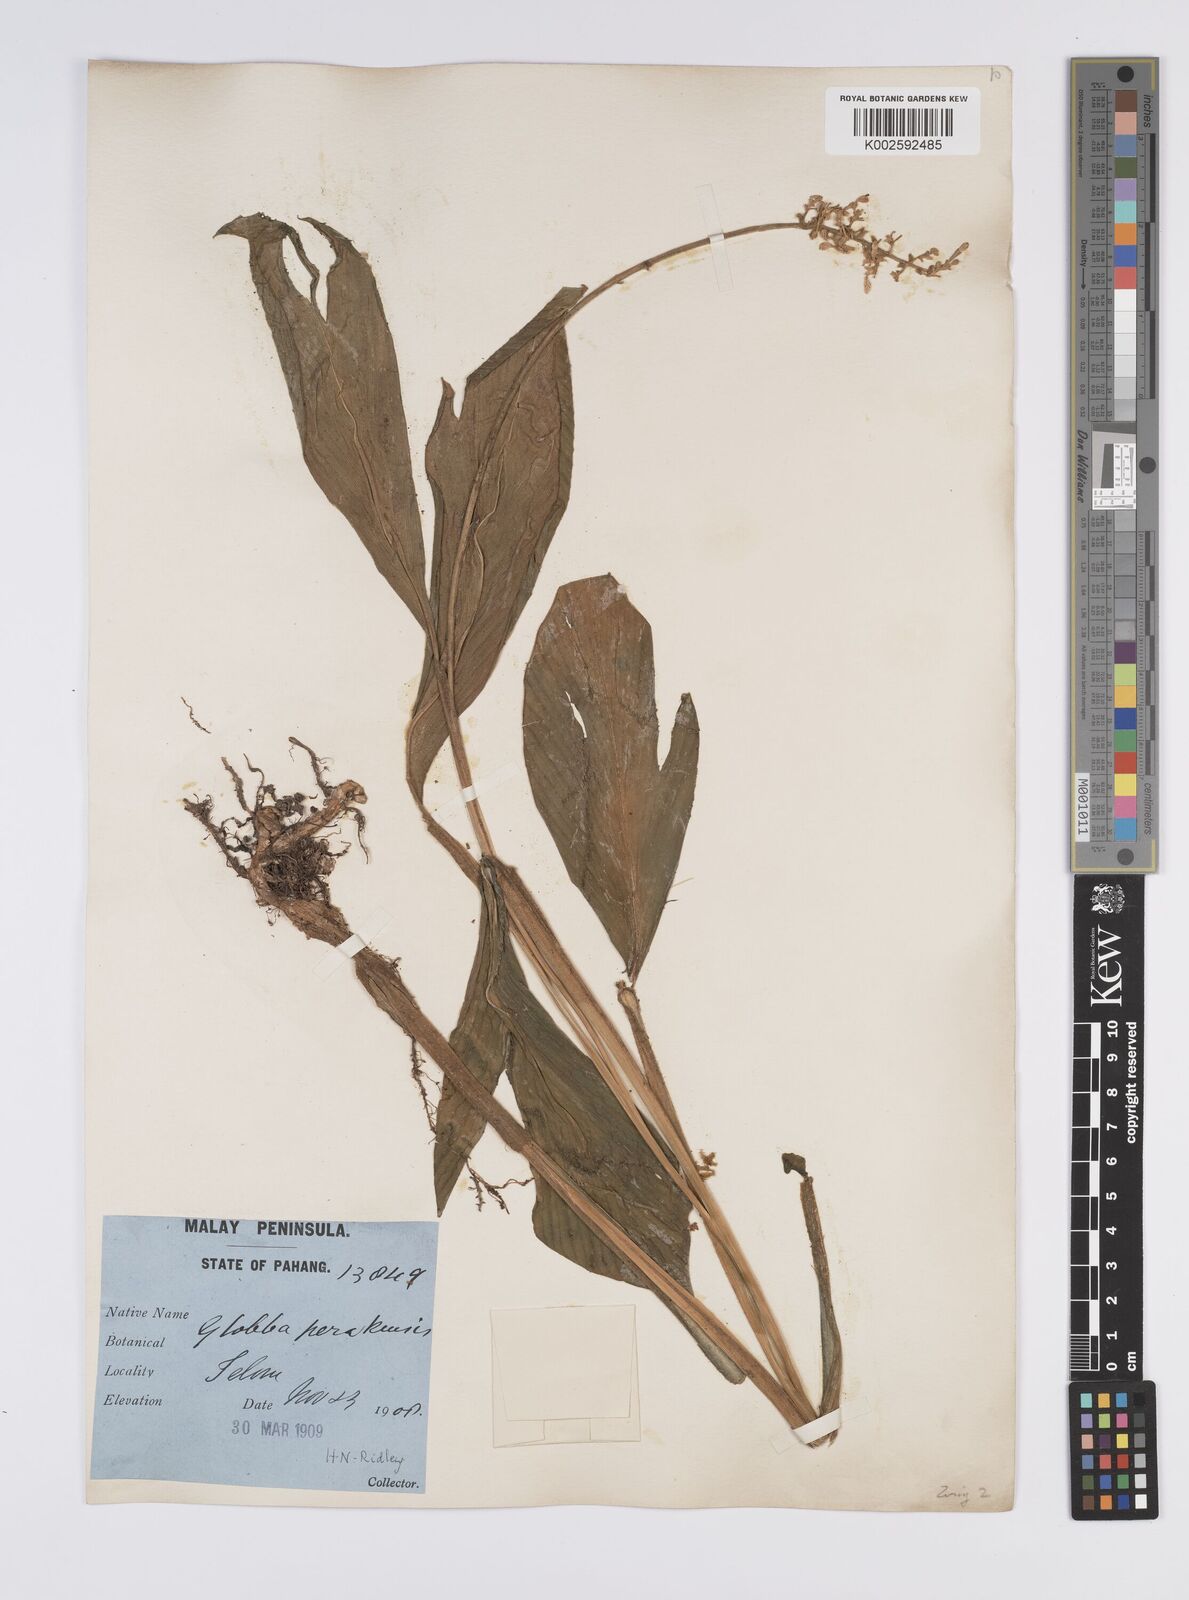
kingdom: Plantae
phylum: Tracheophyta
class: Liliopsida
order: Zingiberales
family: Zingiberaceae
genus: Globba
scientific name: Globba aurantiaca
